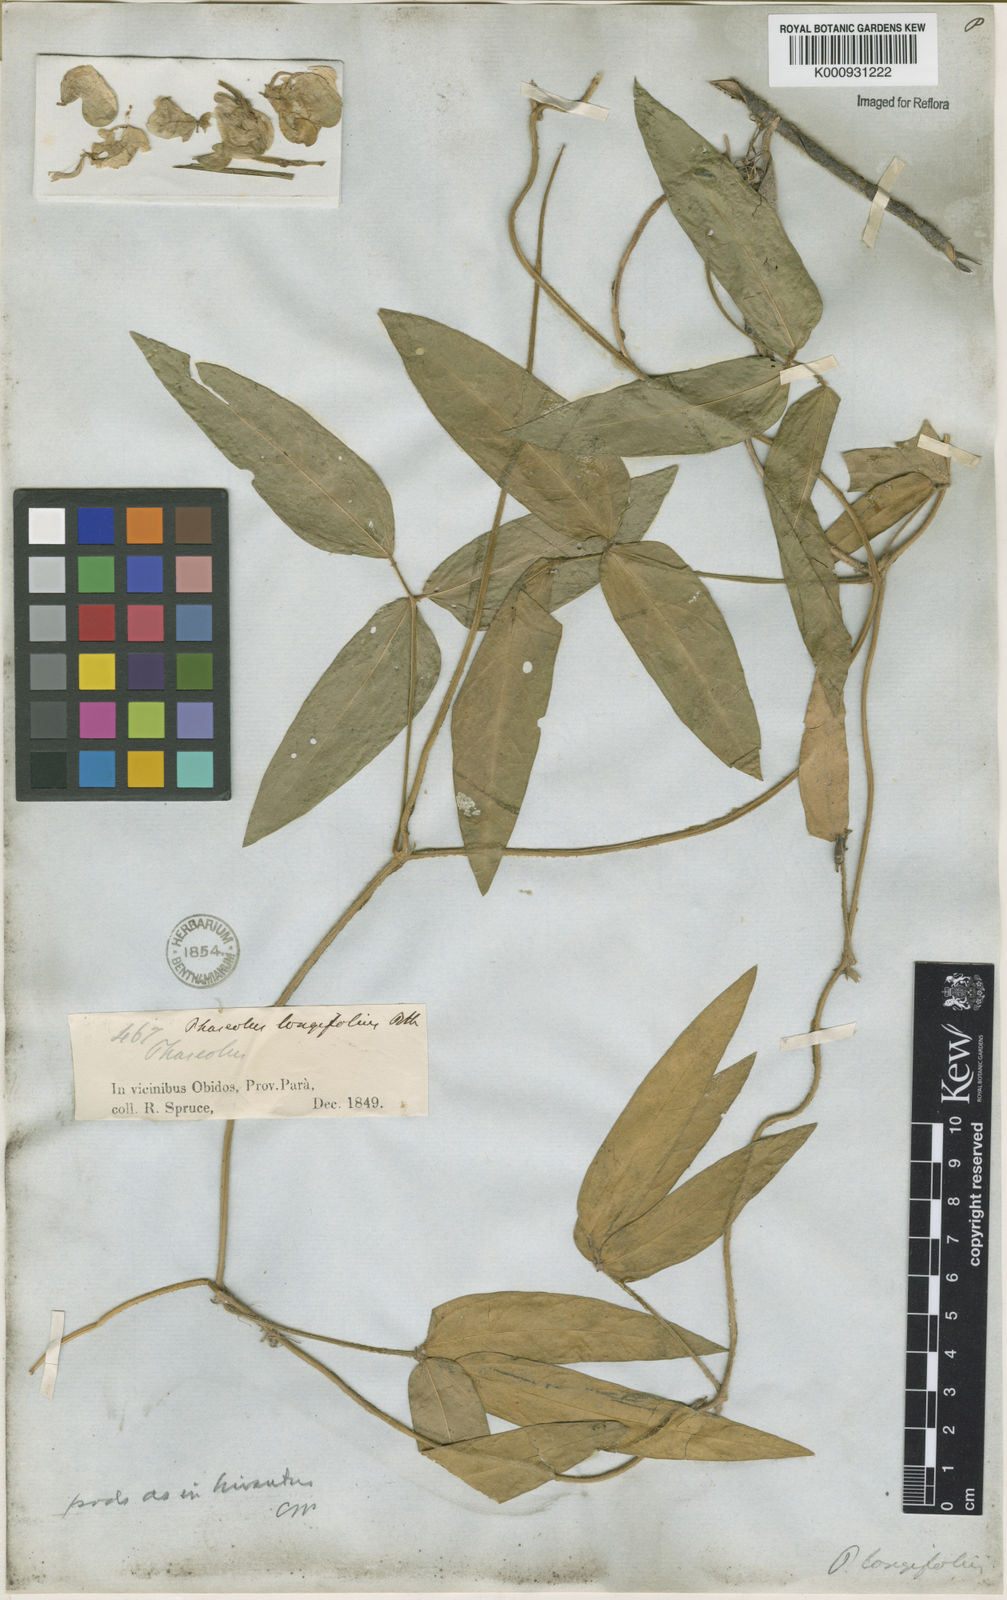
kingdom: Plantae
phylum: Tracheophyta
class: Magnoliopsida
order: Fabales
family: Fabaceae
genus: Vigna
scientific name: Vigna longifolia
